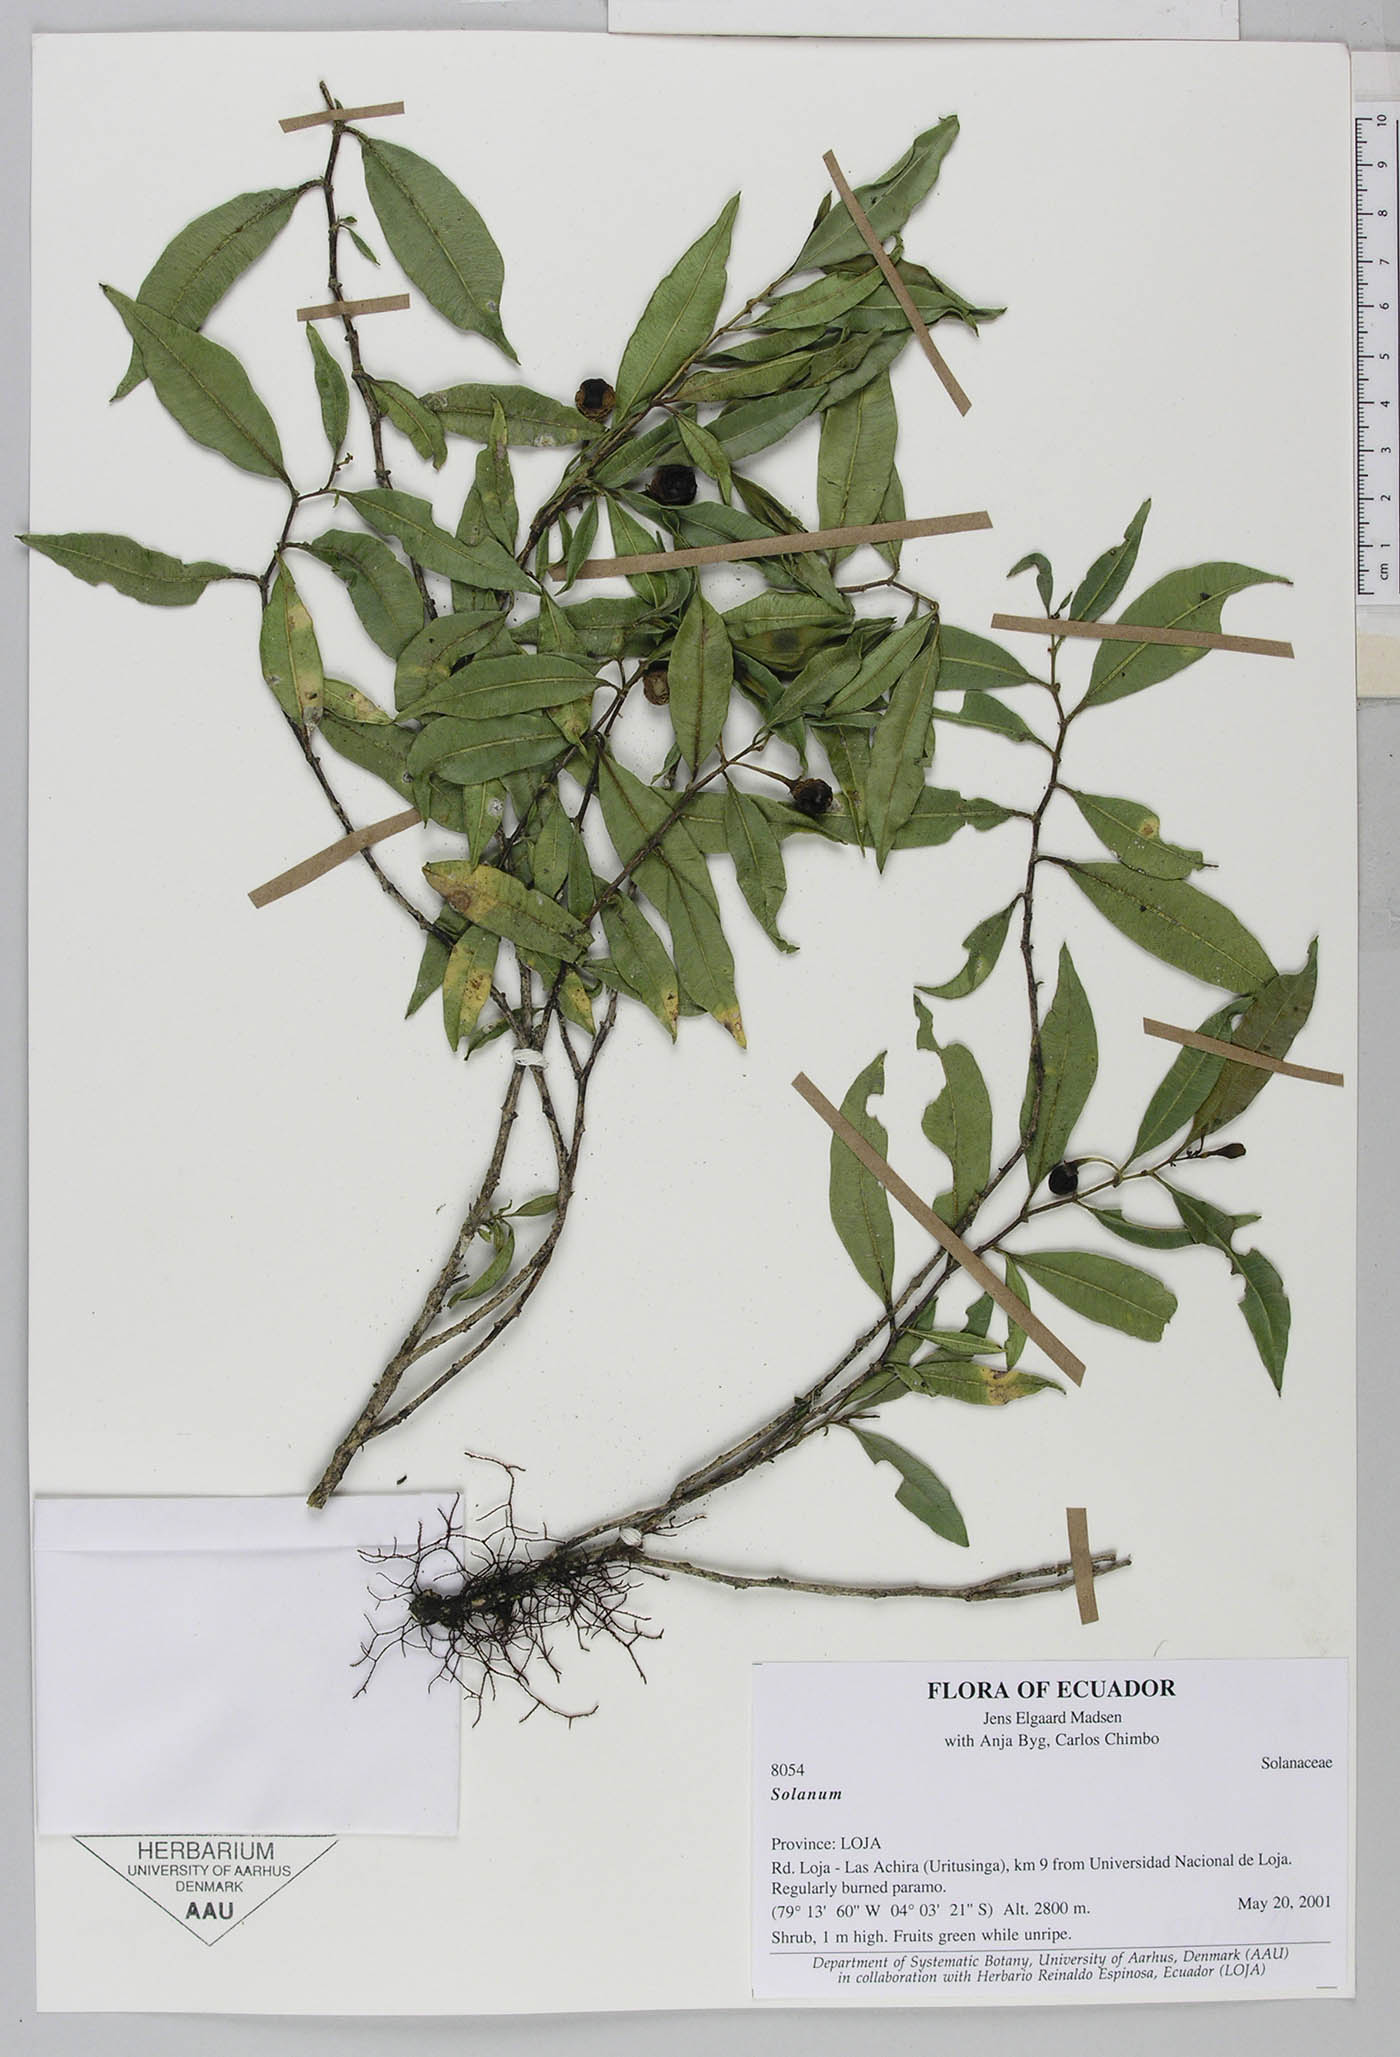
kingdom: Plantae
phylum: Tracheophyta
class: Magnoliopsida
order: Solanales
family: Solanaceae
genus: Solanum
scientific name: Solanum elvasioides
